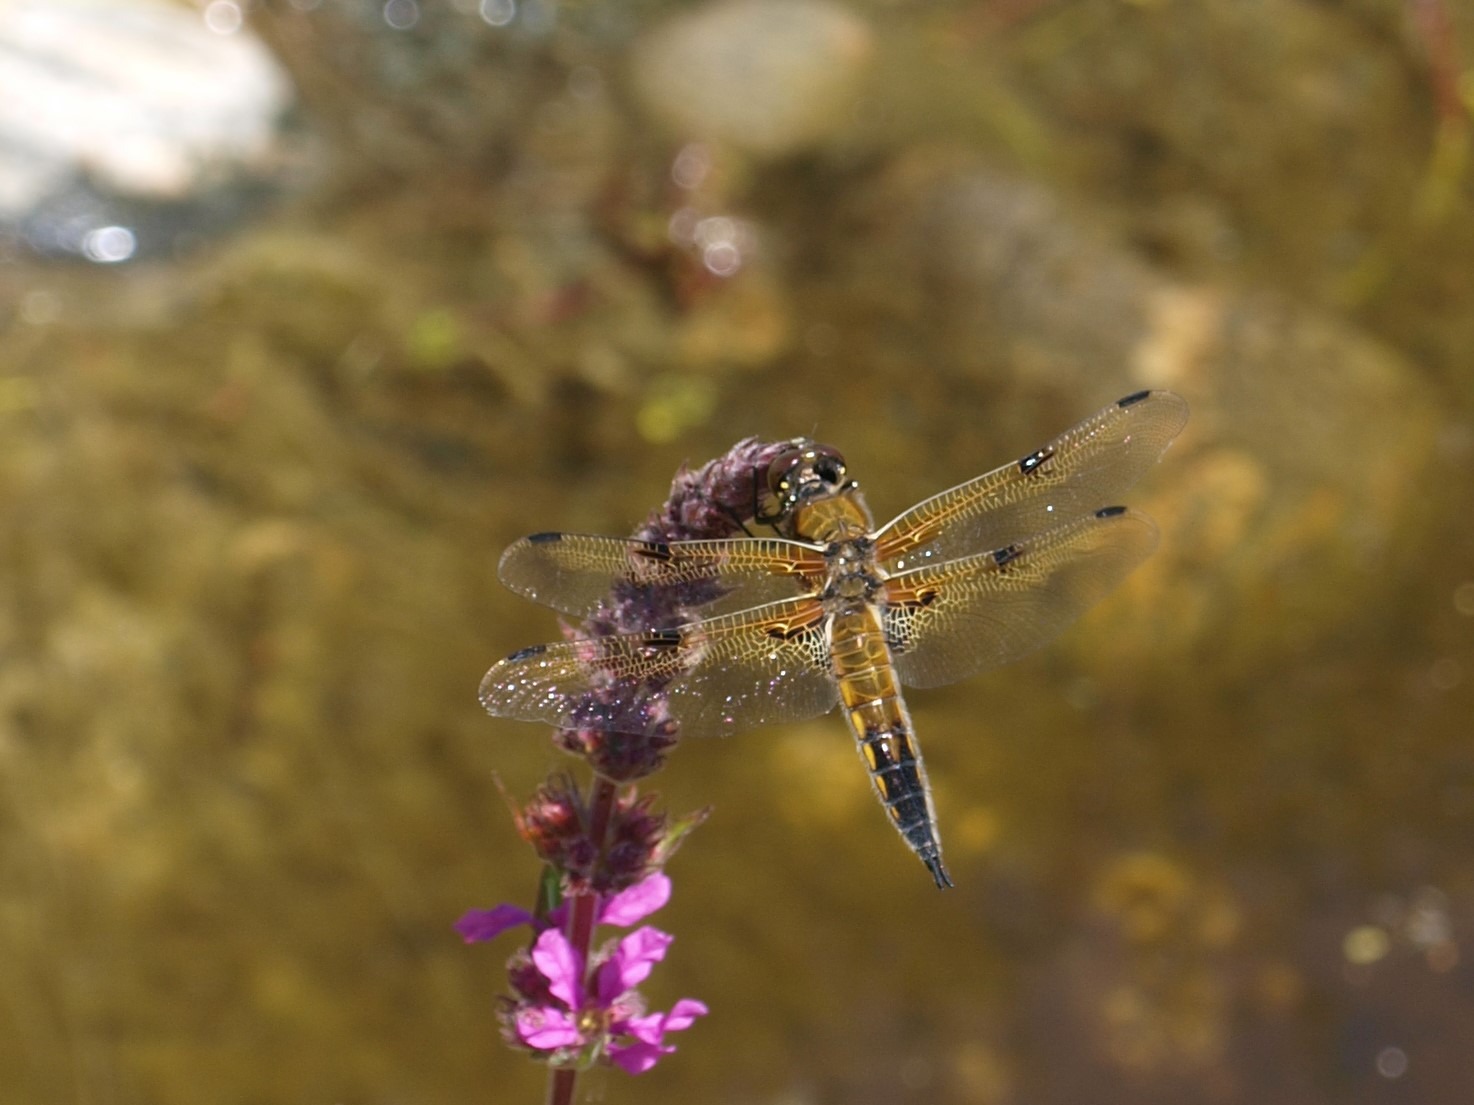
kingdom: Animalia
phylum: Arthropoda
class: Insecta
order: Odonata
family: Libellulidae
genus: Libellula
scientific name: Libellula quadrimaculata
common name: Fireplettet libel
